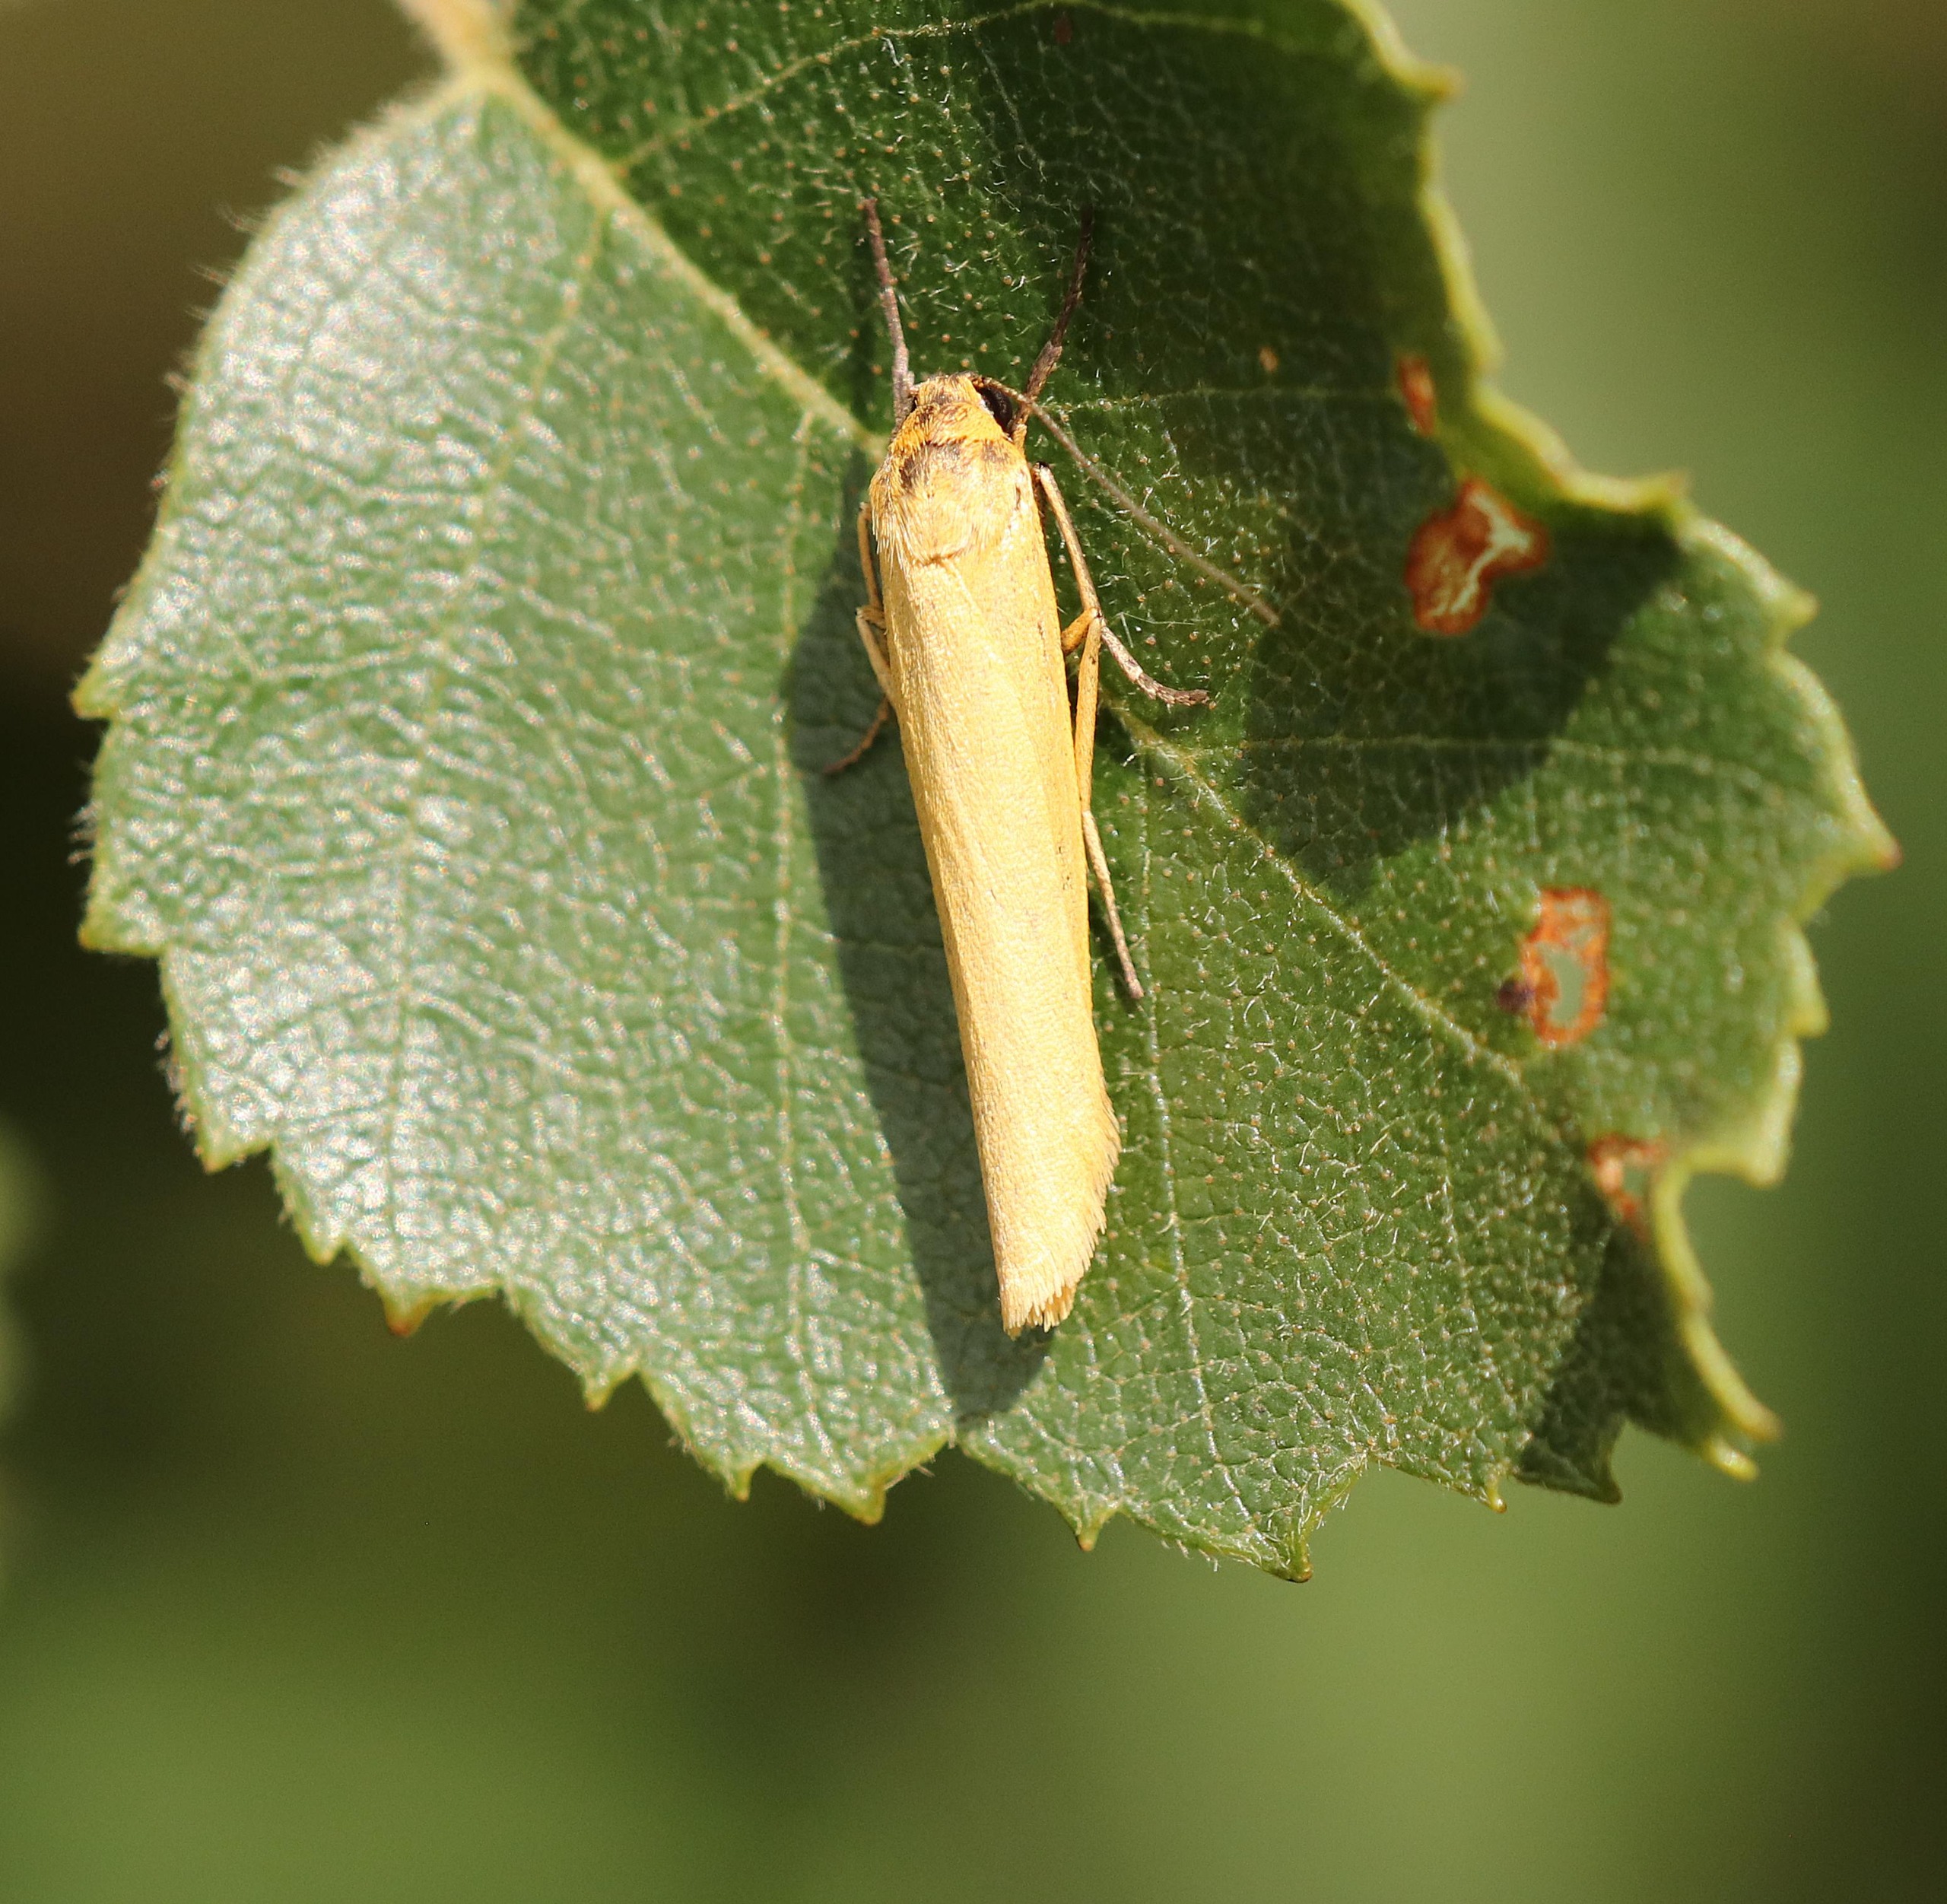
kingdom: Animalia
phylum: Arthropoda
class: Insecta
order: Lepidoptera
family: Erebidae
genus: Indalia
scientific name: Indalia lutarella
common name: Lergul lavspinder
